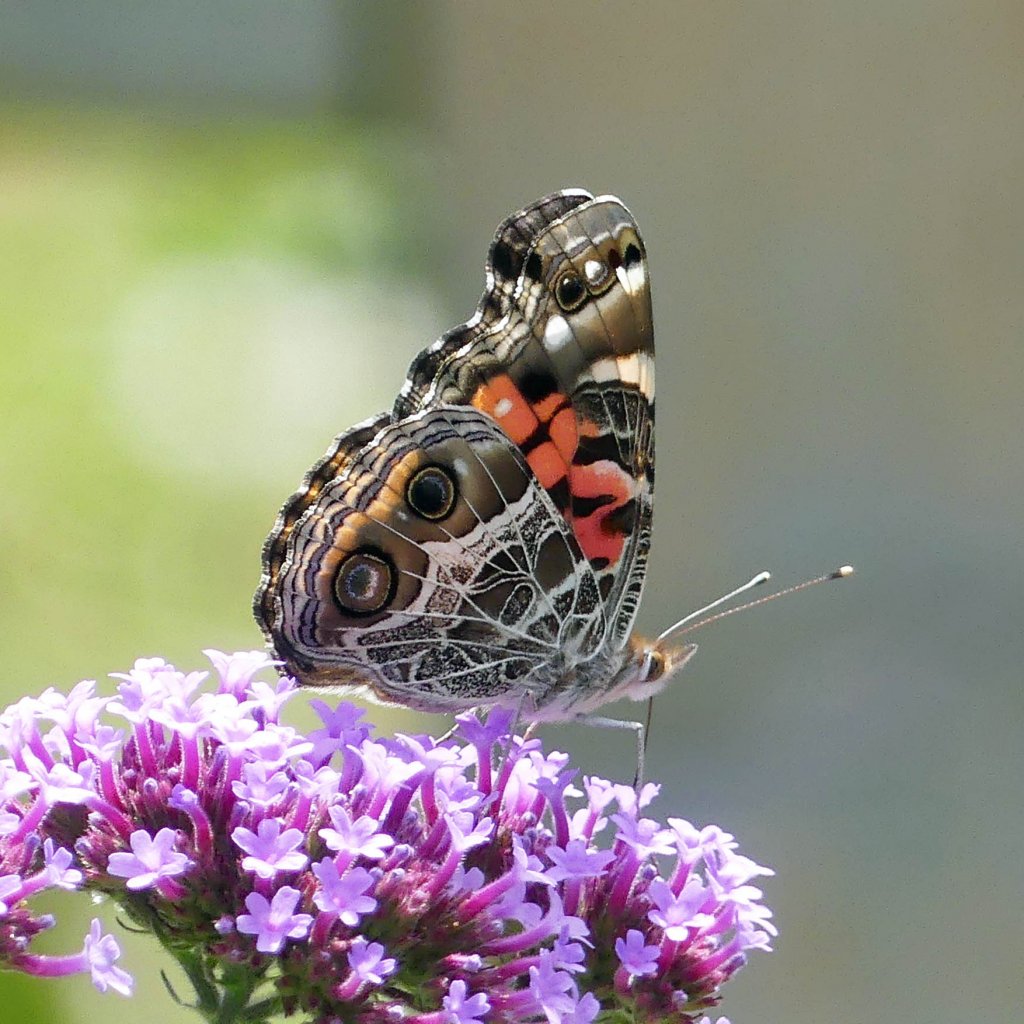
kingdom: Animalia
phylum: Arthropoda
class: Insecta
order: Lepidoptera
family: Nymphalidae
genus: Vanessa
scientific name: Vanessa virginiensis
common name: American Lady
